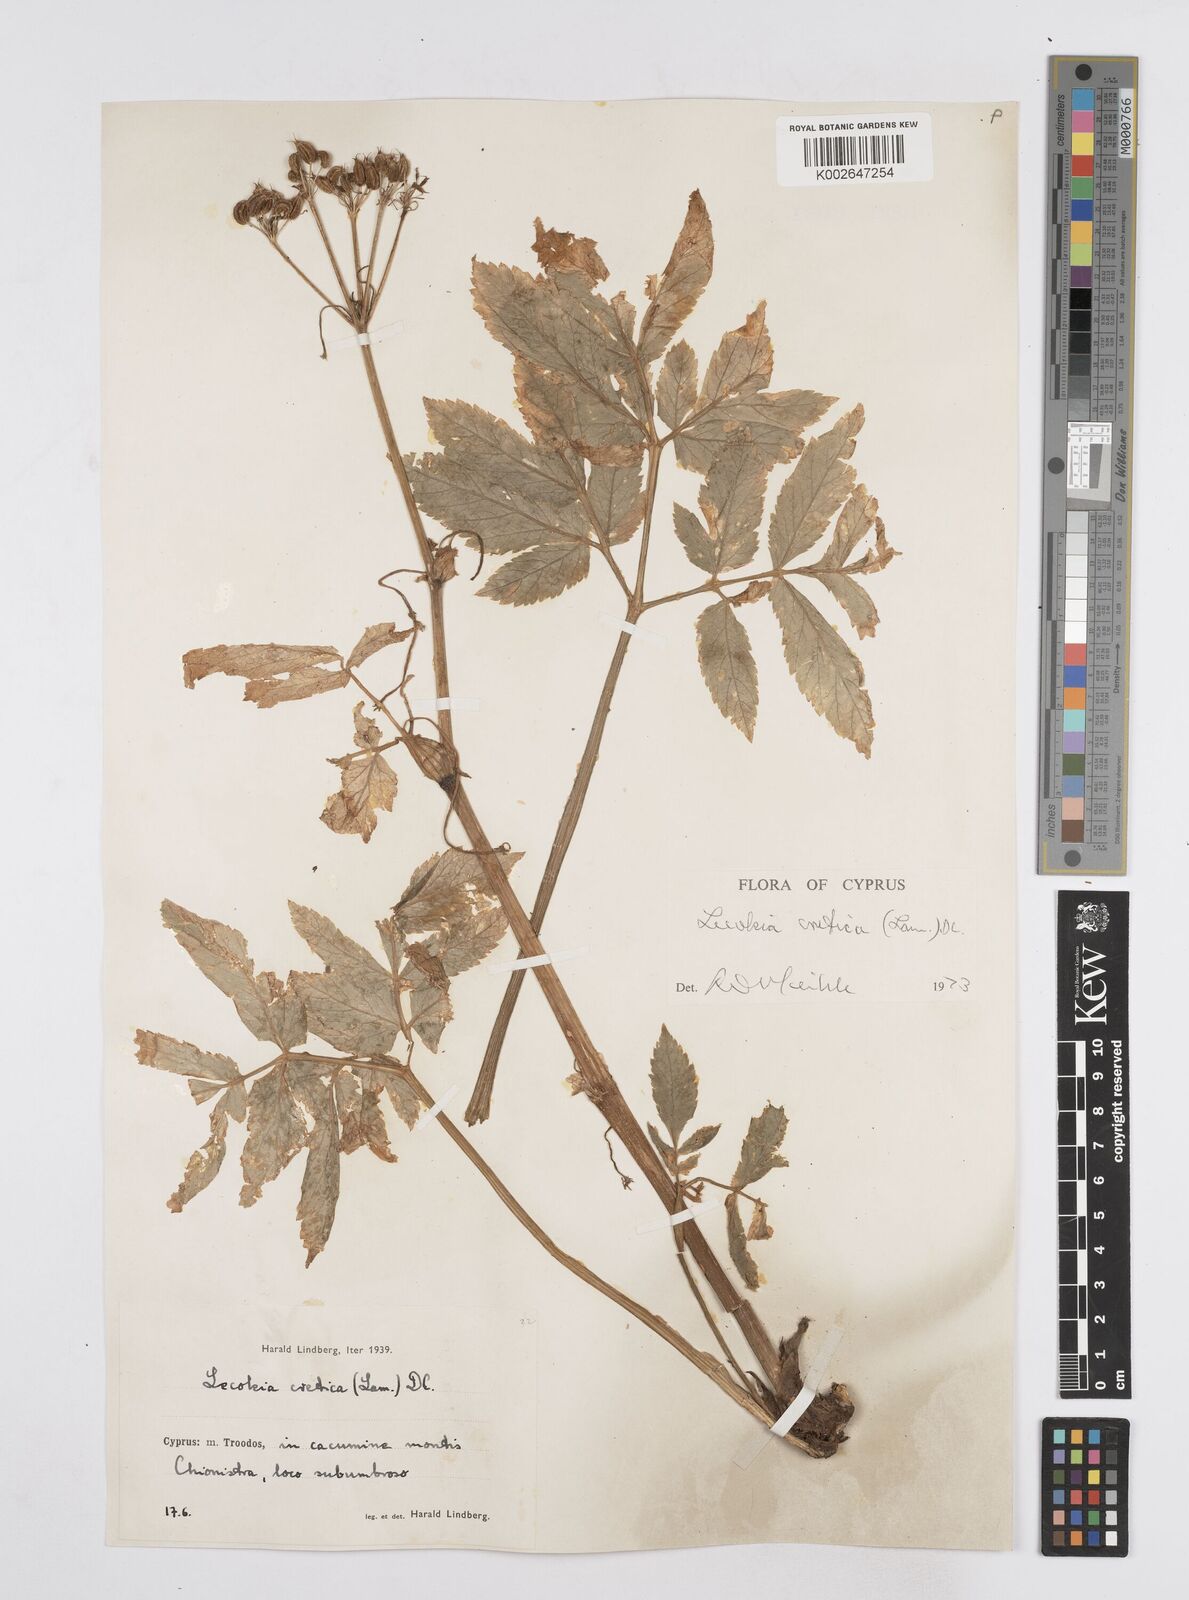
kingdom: Plantae
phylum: Tracheophyta
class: Magnoliopsida
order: Apiales
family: Apiaceae
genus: Lecokia
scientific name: Lecokia cretica
